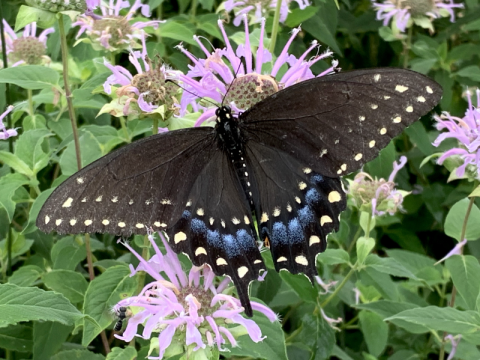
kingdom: Animalia
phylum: Arthropoda
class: Insecta
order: Lepidoptera
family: Papilionidae
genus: Papilio
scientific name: Papilio polyxenes
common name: Black Swallowtail
